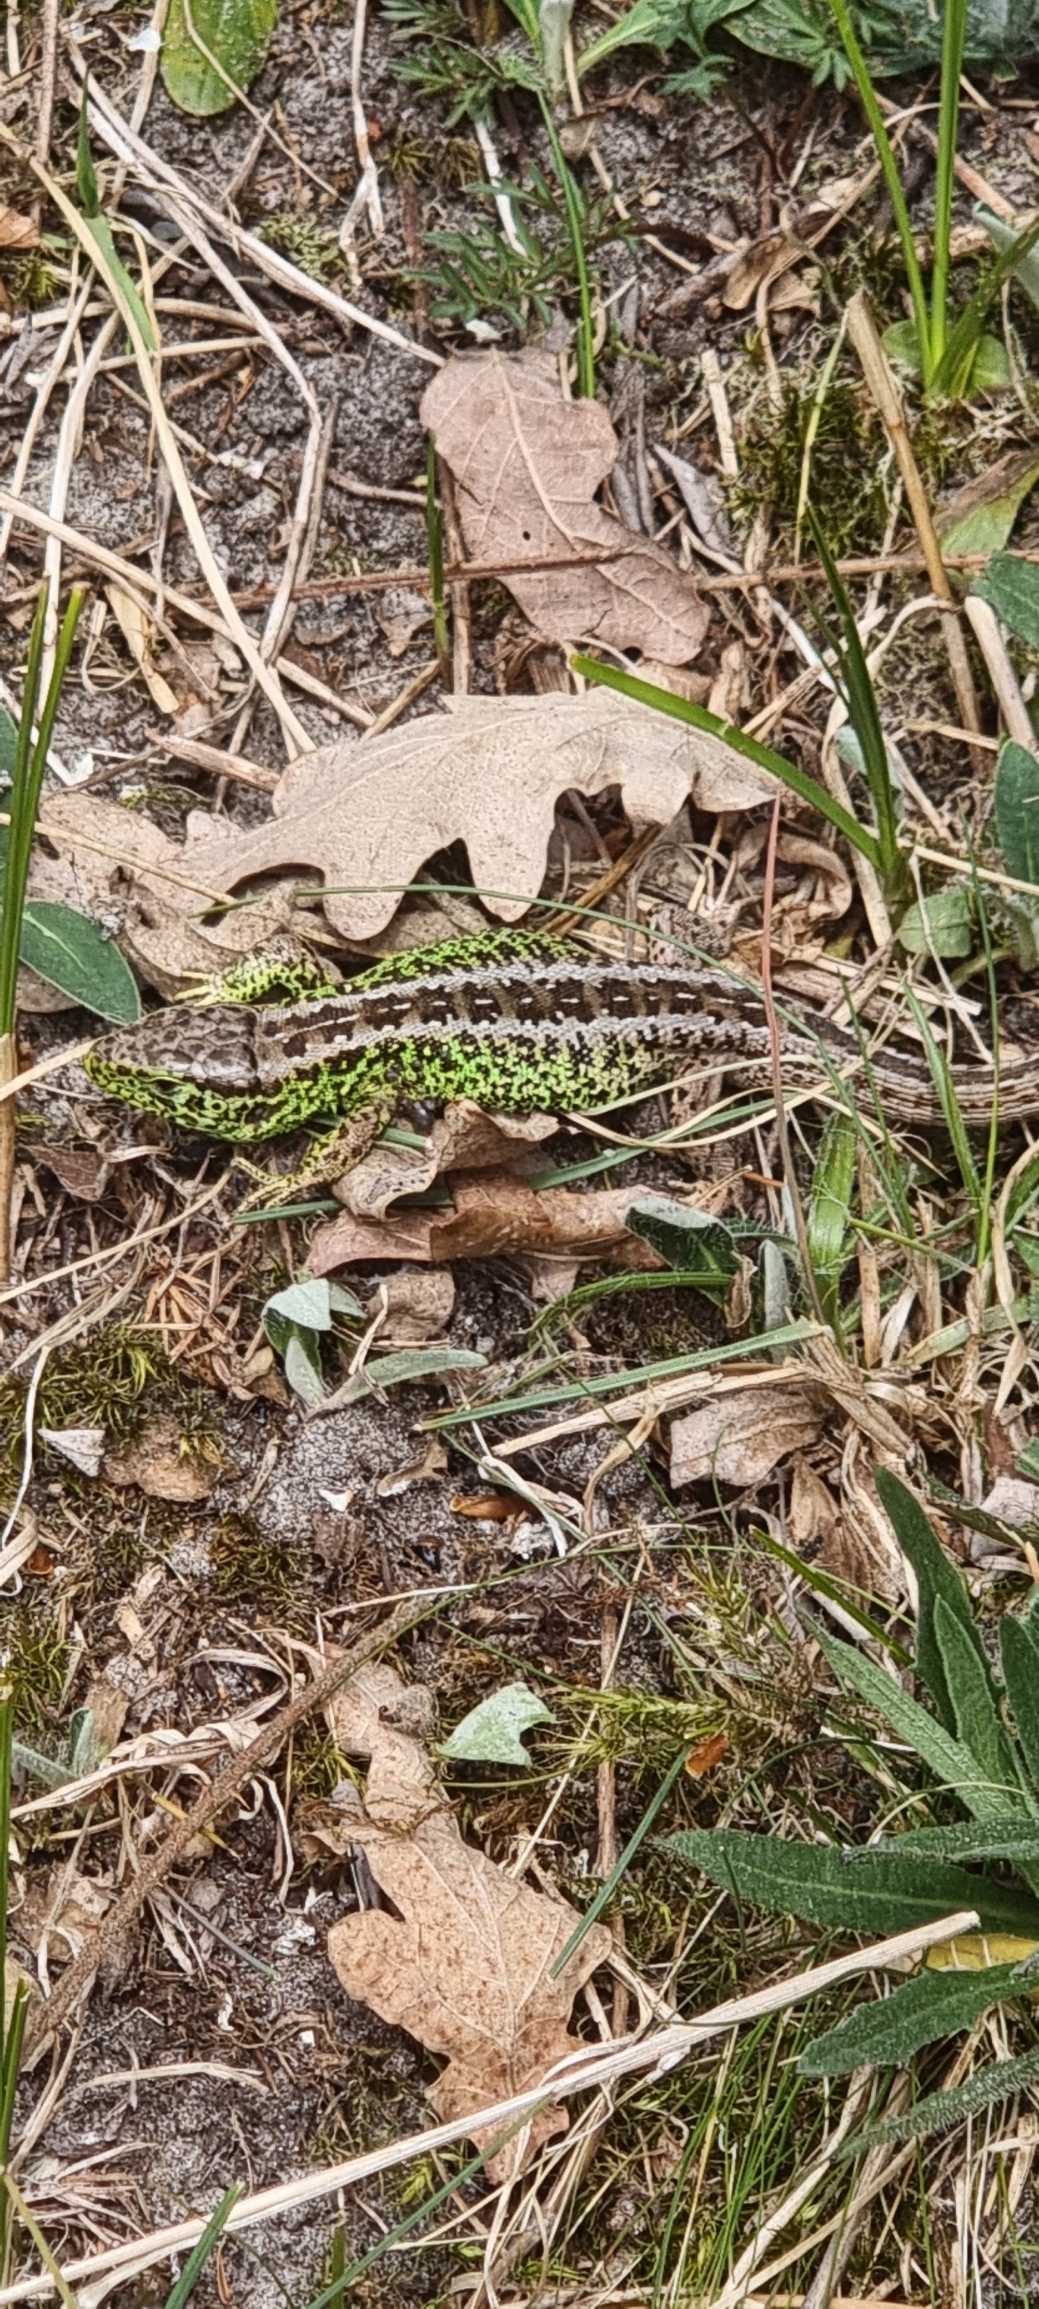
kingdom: Animalia
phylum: Chordata
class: Squamata
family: Lacertidae
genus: Lacerta
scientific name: Lacerta agilis
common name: Markfirben
